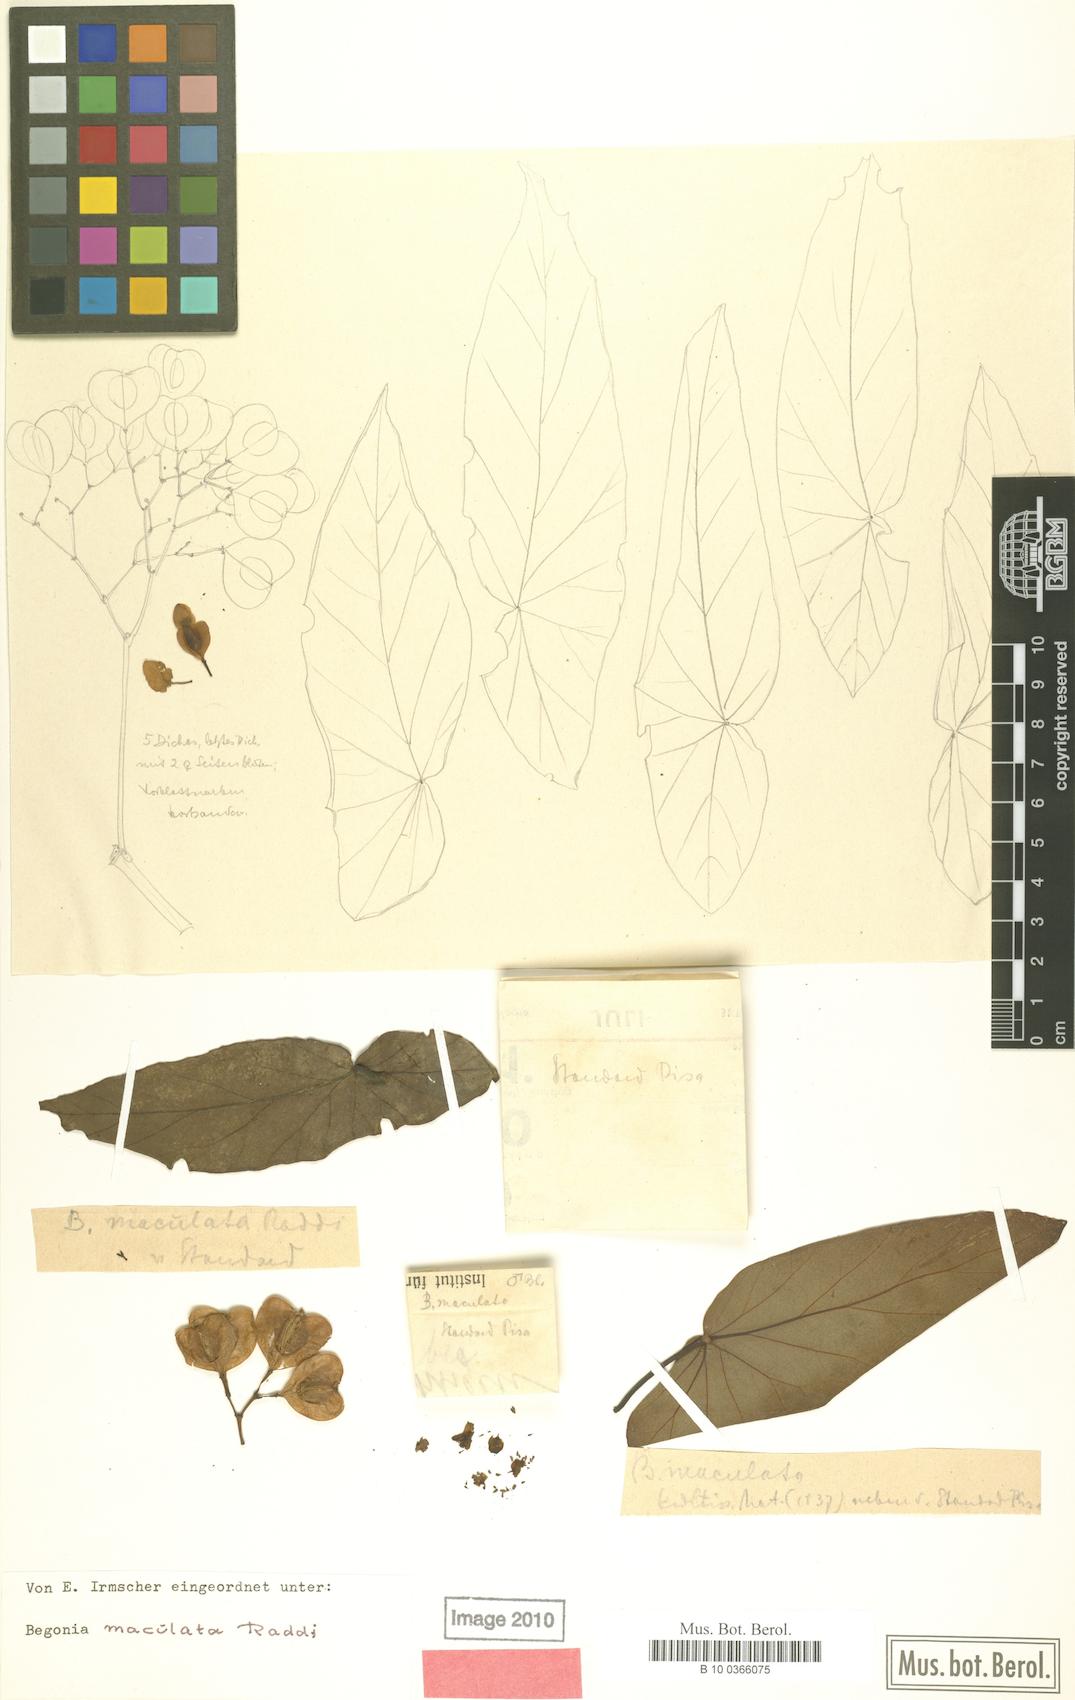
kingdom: Plantae
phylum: Tracheophyta
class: Magnoliopsida
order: Cucurbitales
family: Begoniaceae
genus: Begonia
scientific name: Begonia maculata
